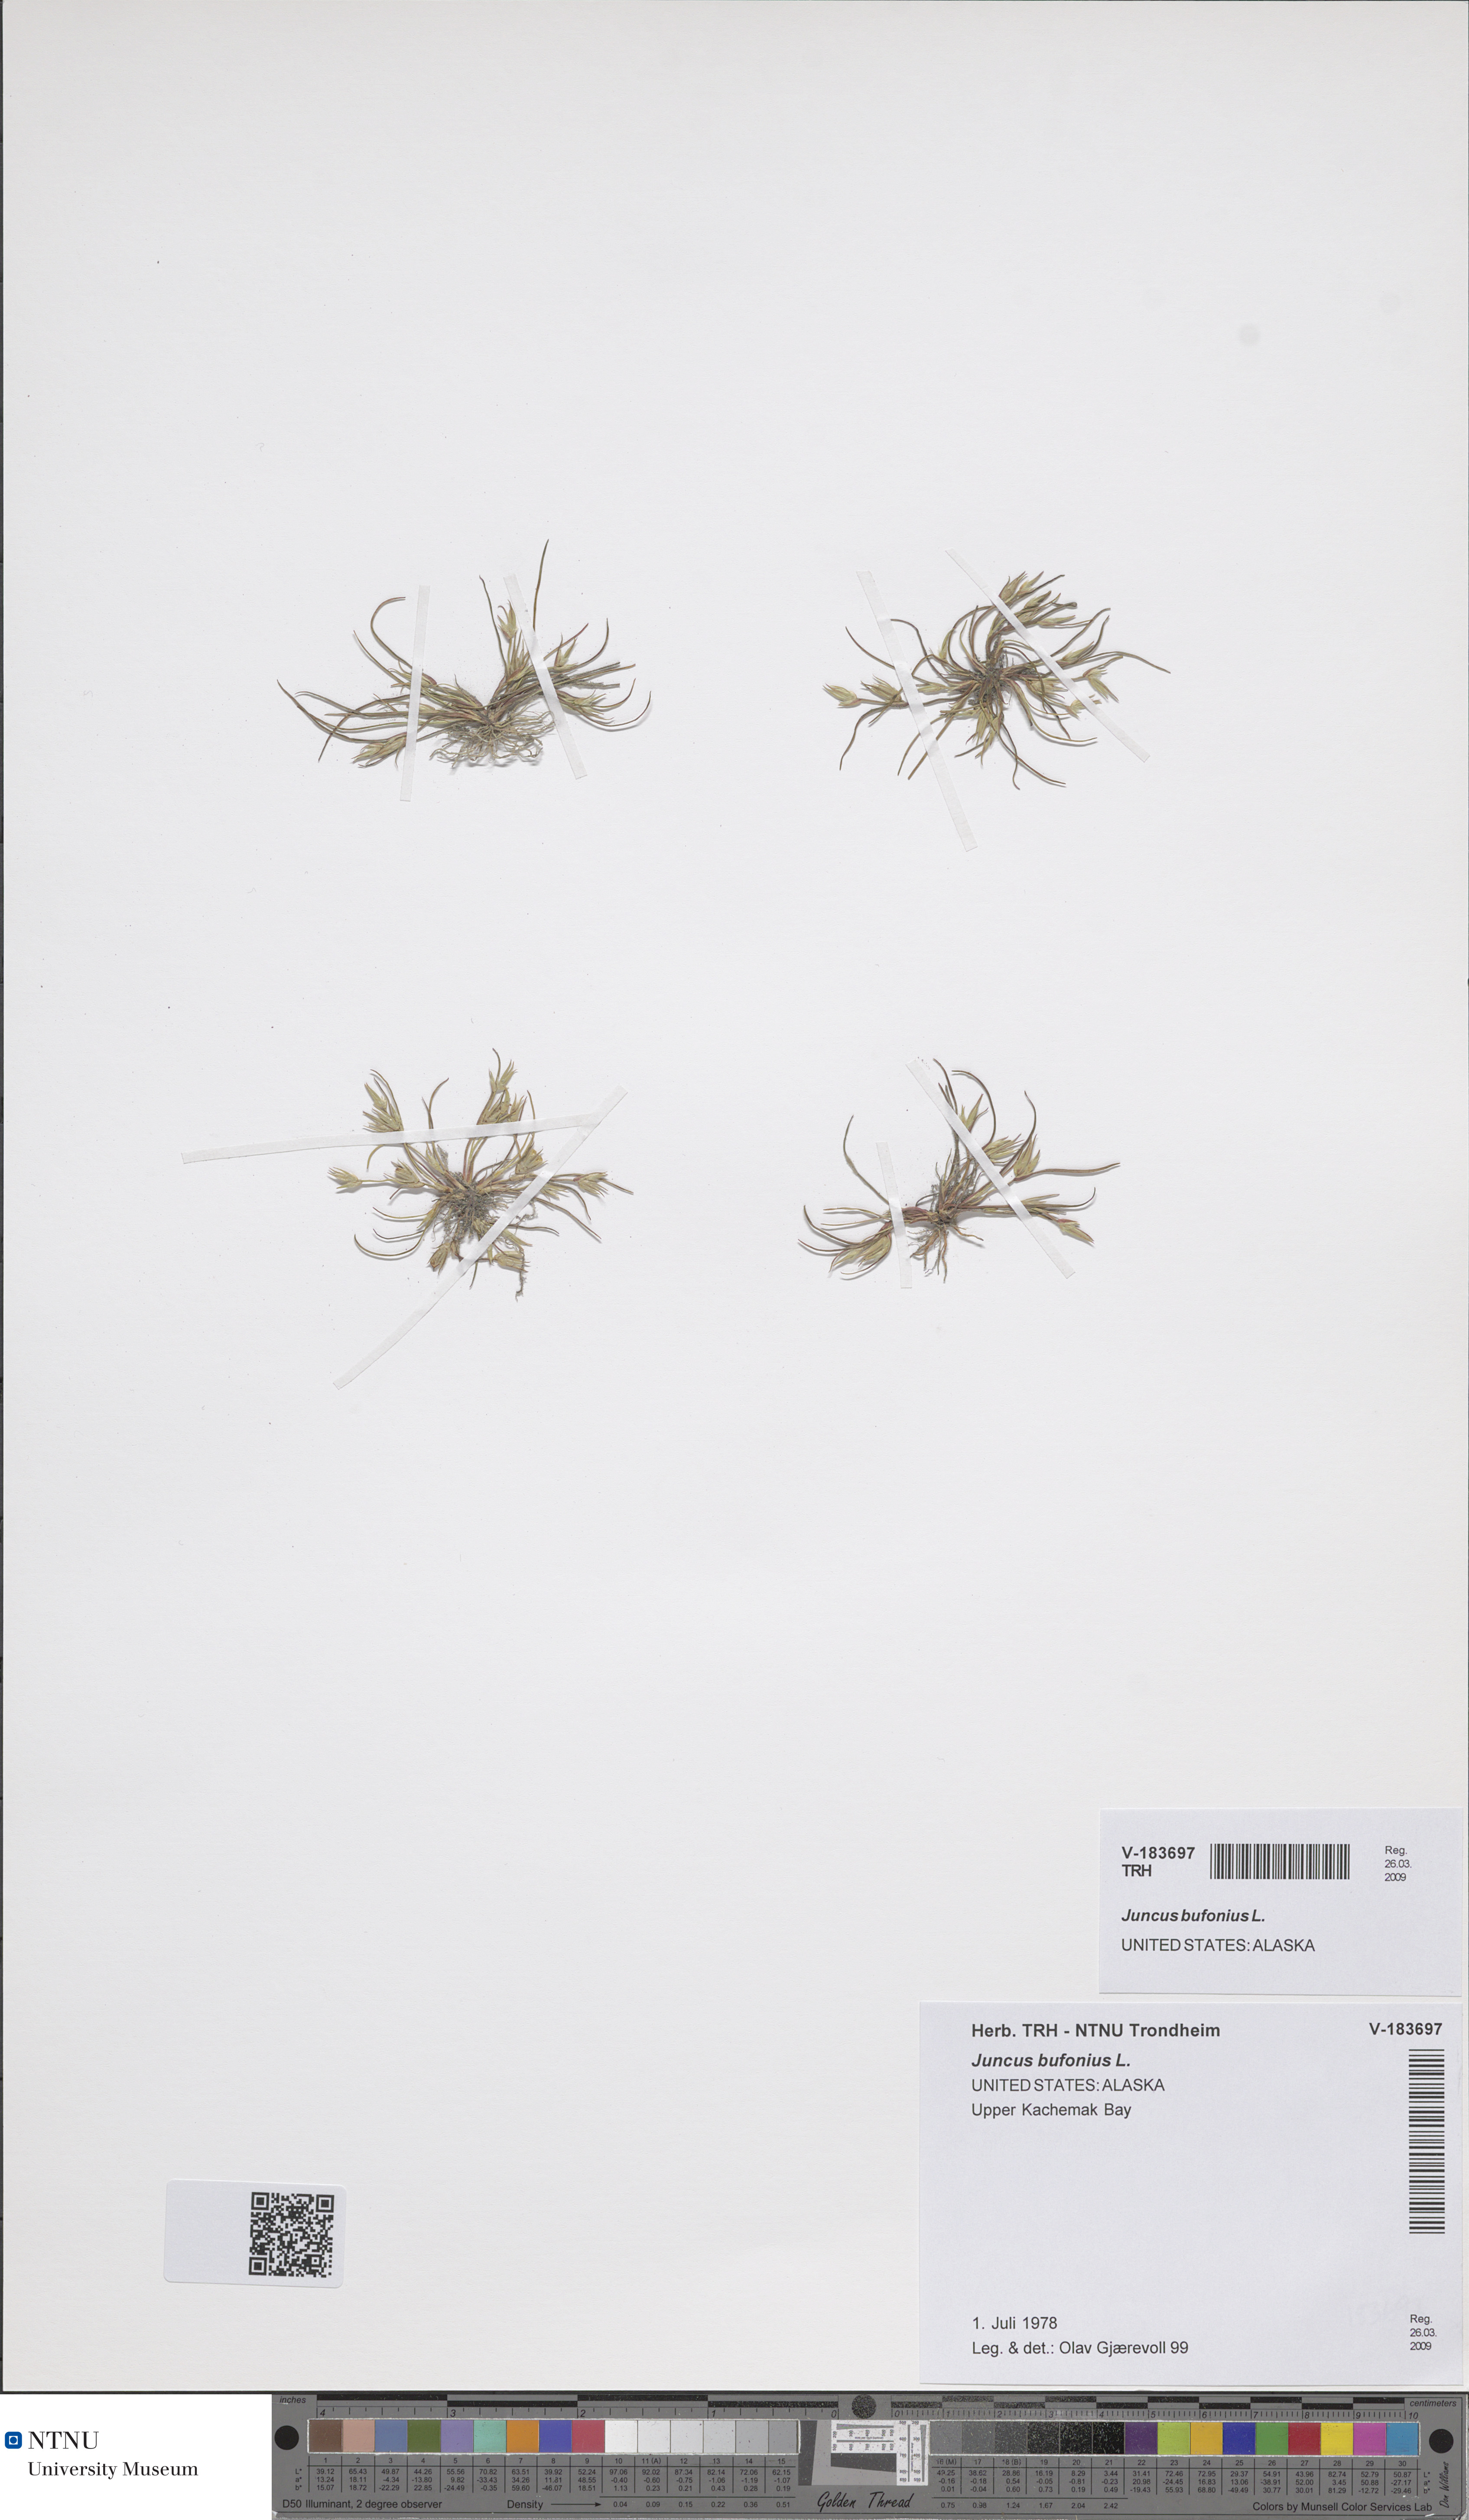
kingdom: Plantae
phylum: Tracheophyta
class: Liliopsida
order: Poales
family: Juncaceae
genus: Juncus
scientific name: Juncus bufonius
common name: Toad rush
